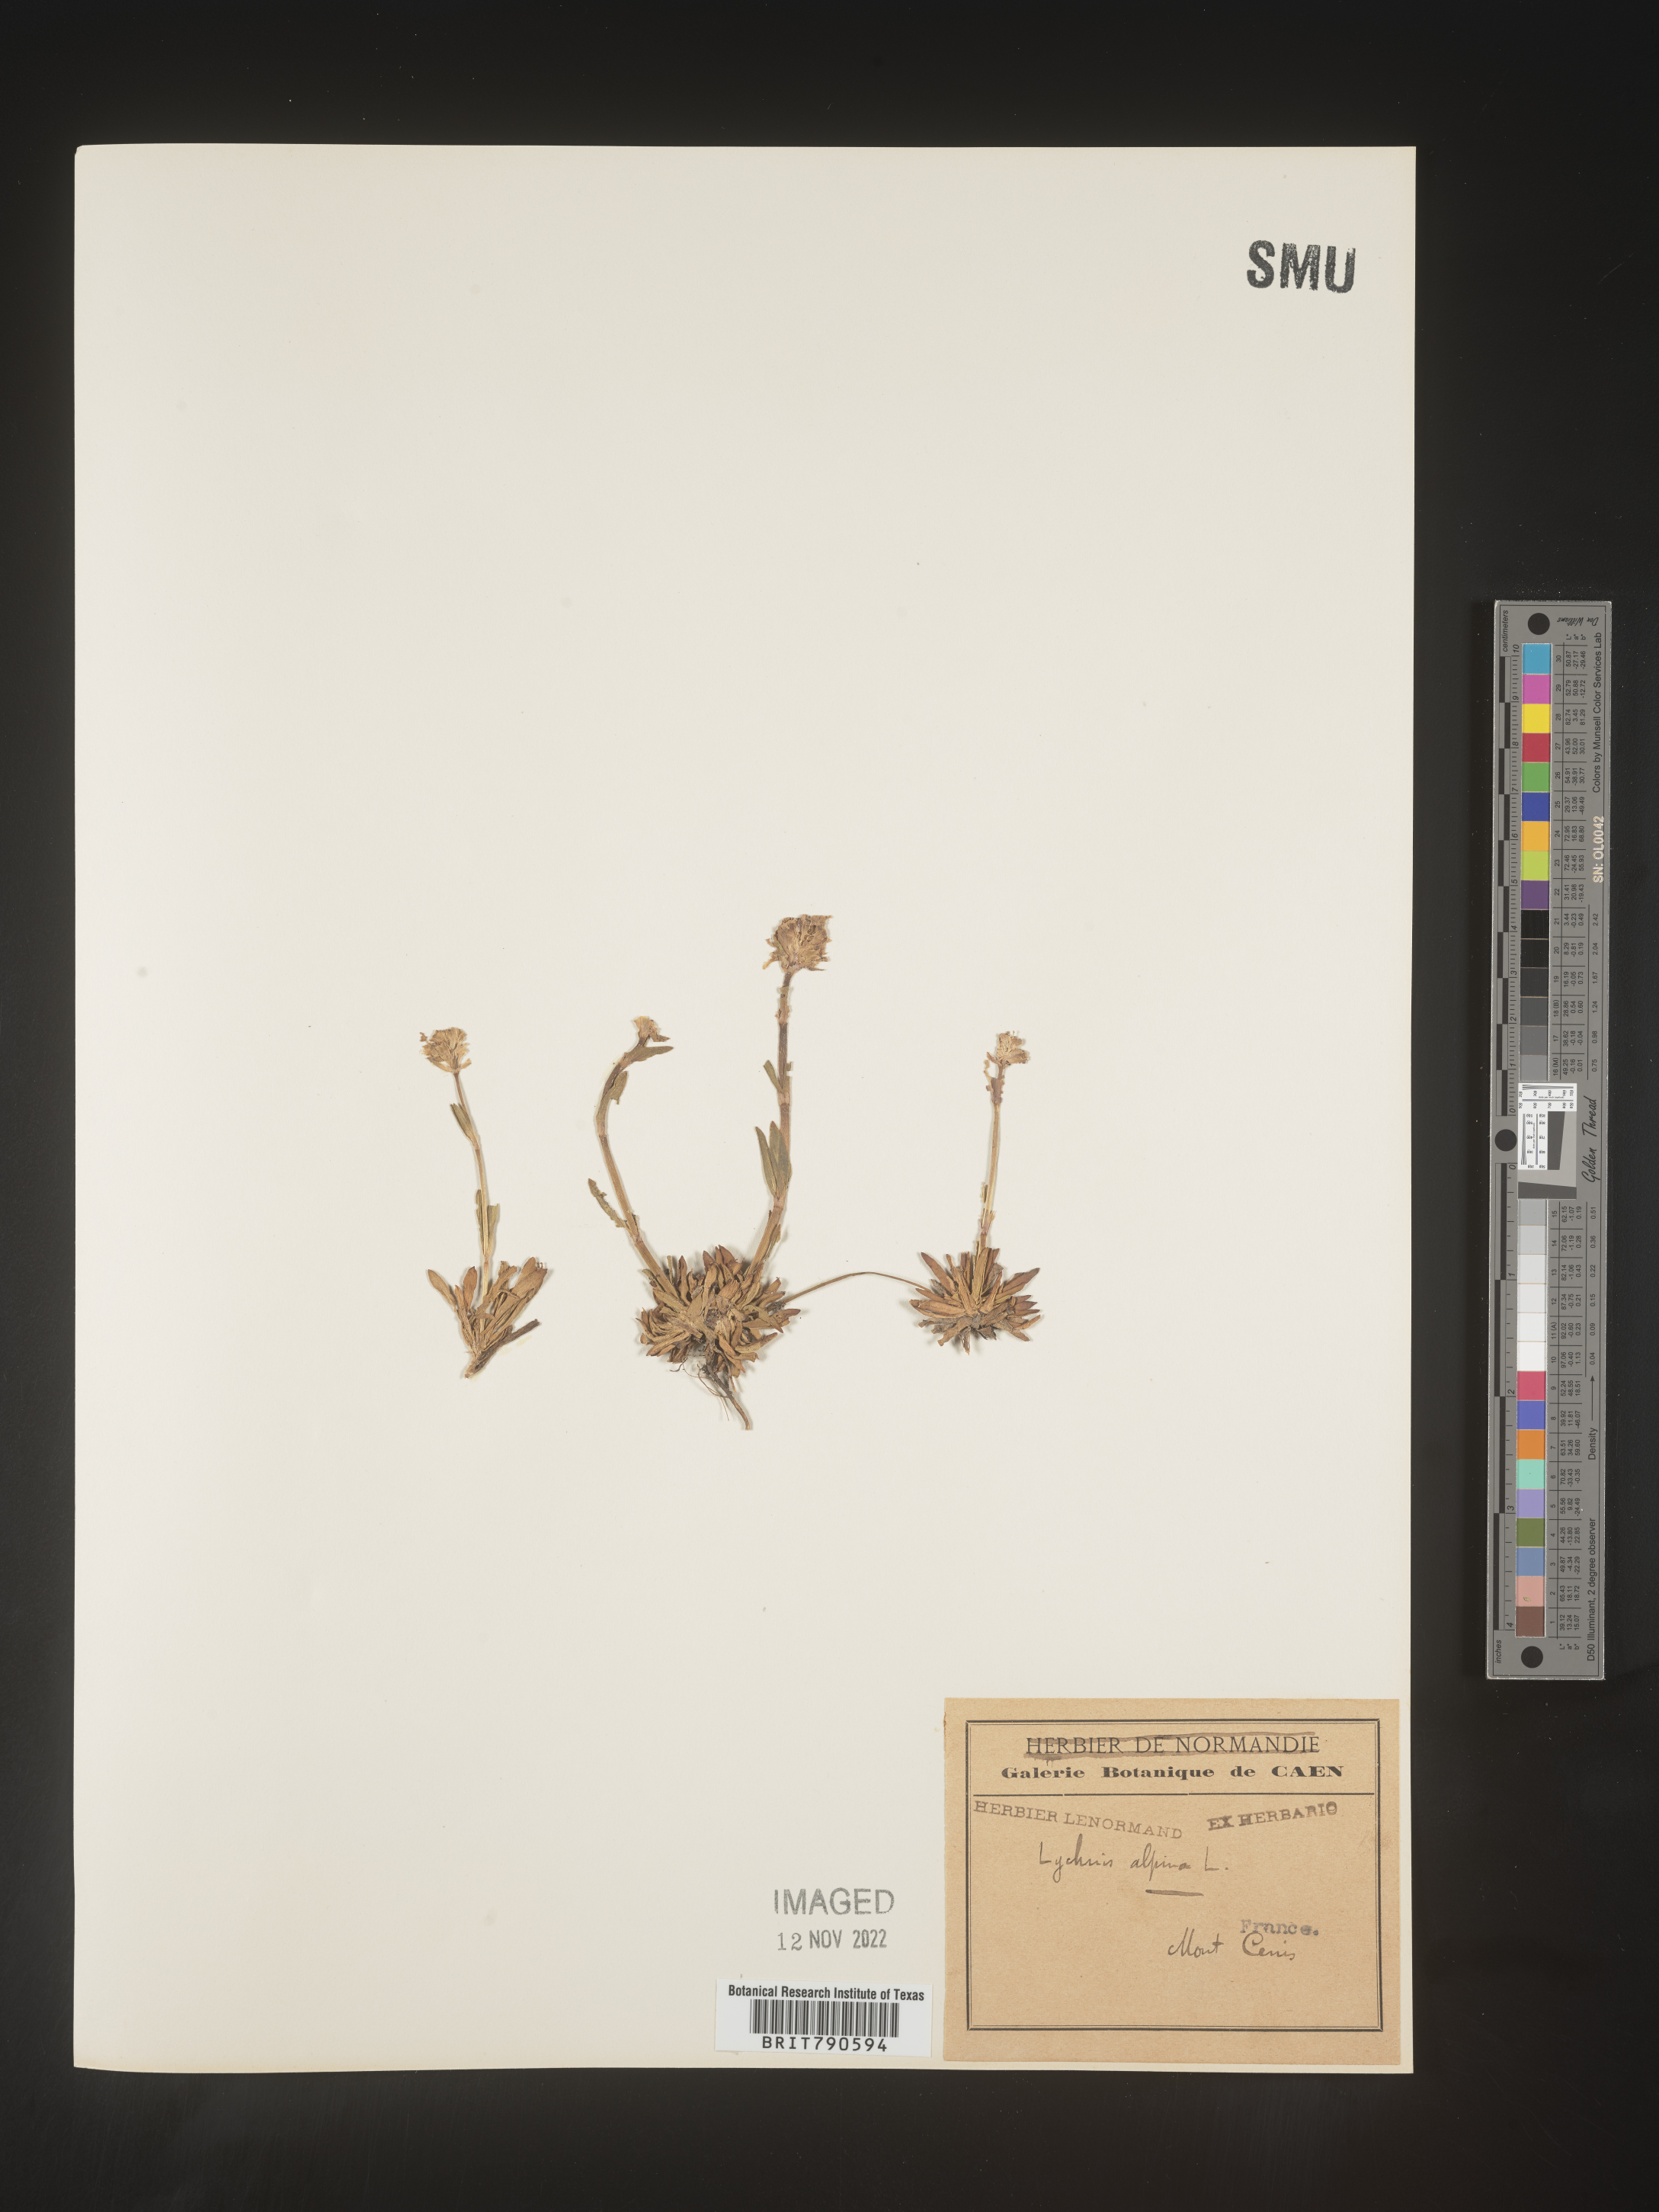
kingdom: Plantae
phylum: Tracheophyta
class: Magnoliopsida
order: Caryophyllales
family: Caryophyllaceae
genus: Silene
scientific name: Silene
